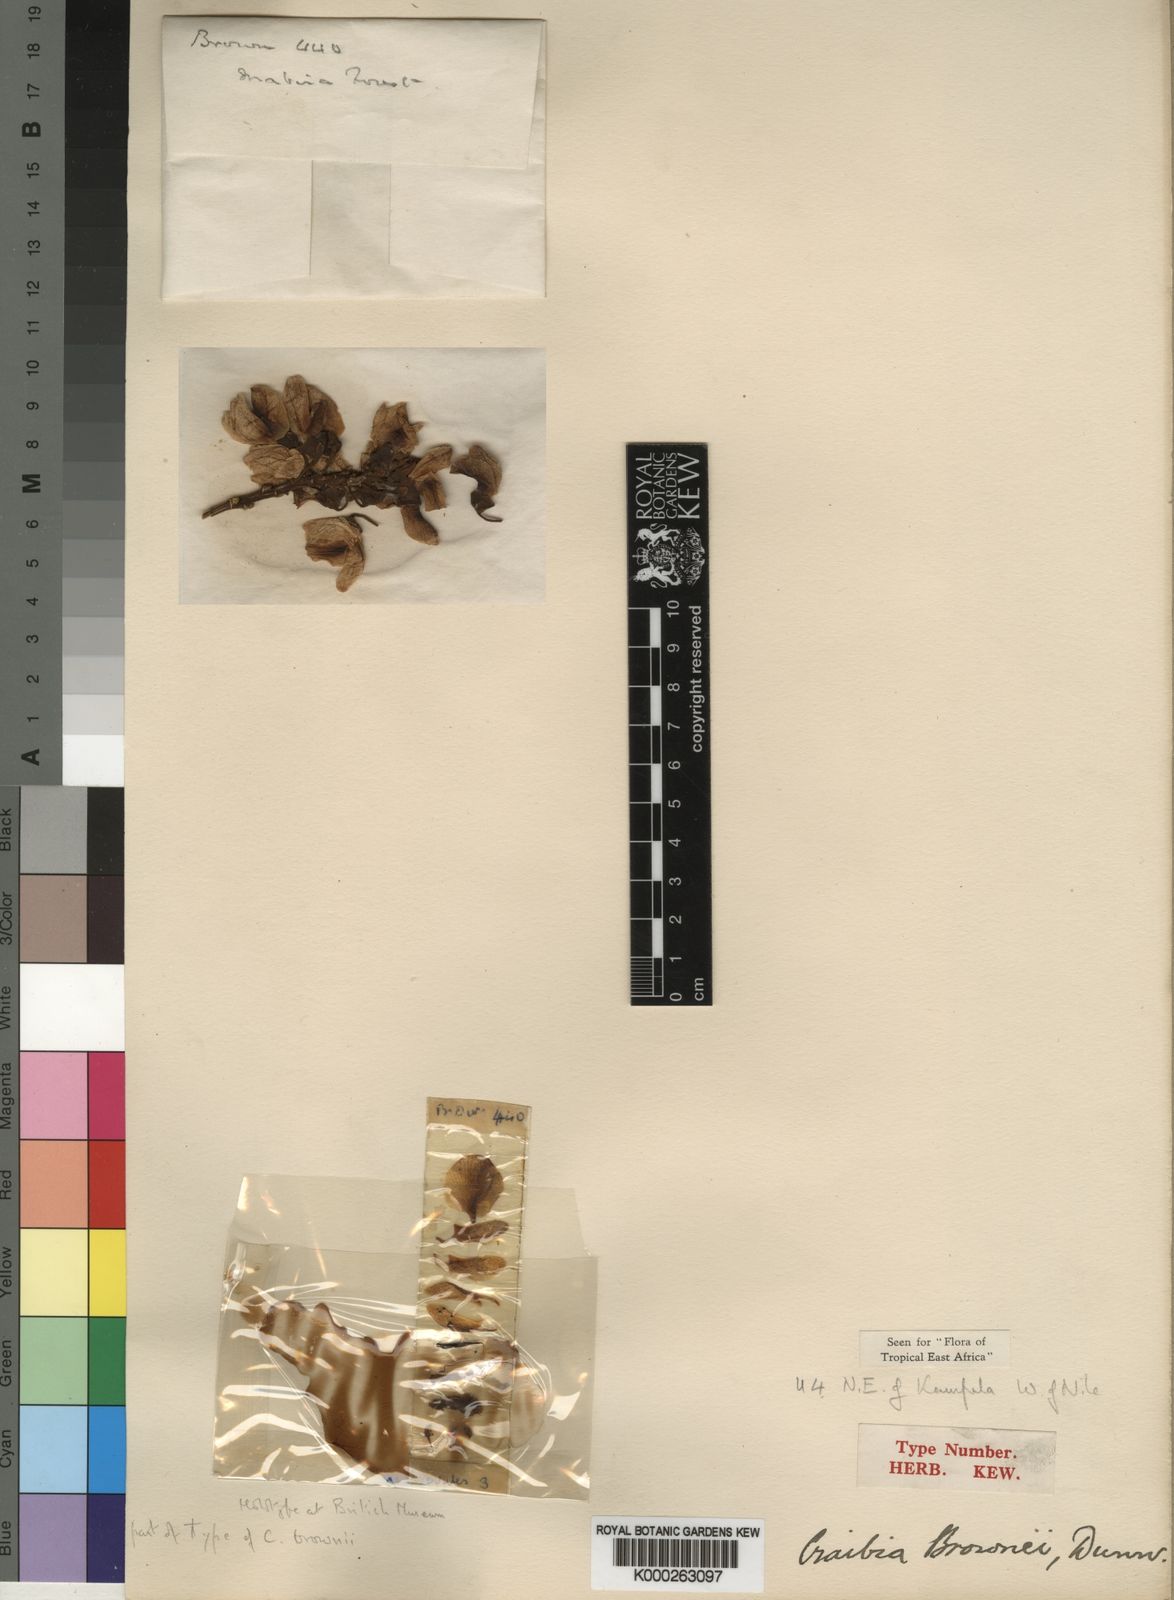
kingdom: Plantae
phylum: Tracheophyta
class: Magnoliopsida
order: Fabales
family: Fabaceae
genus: Craibia
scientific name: Craibia brownii
